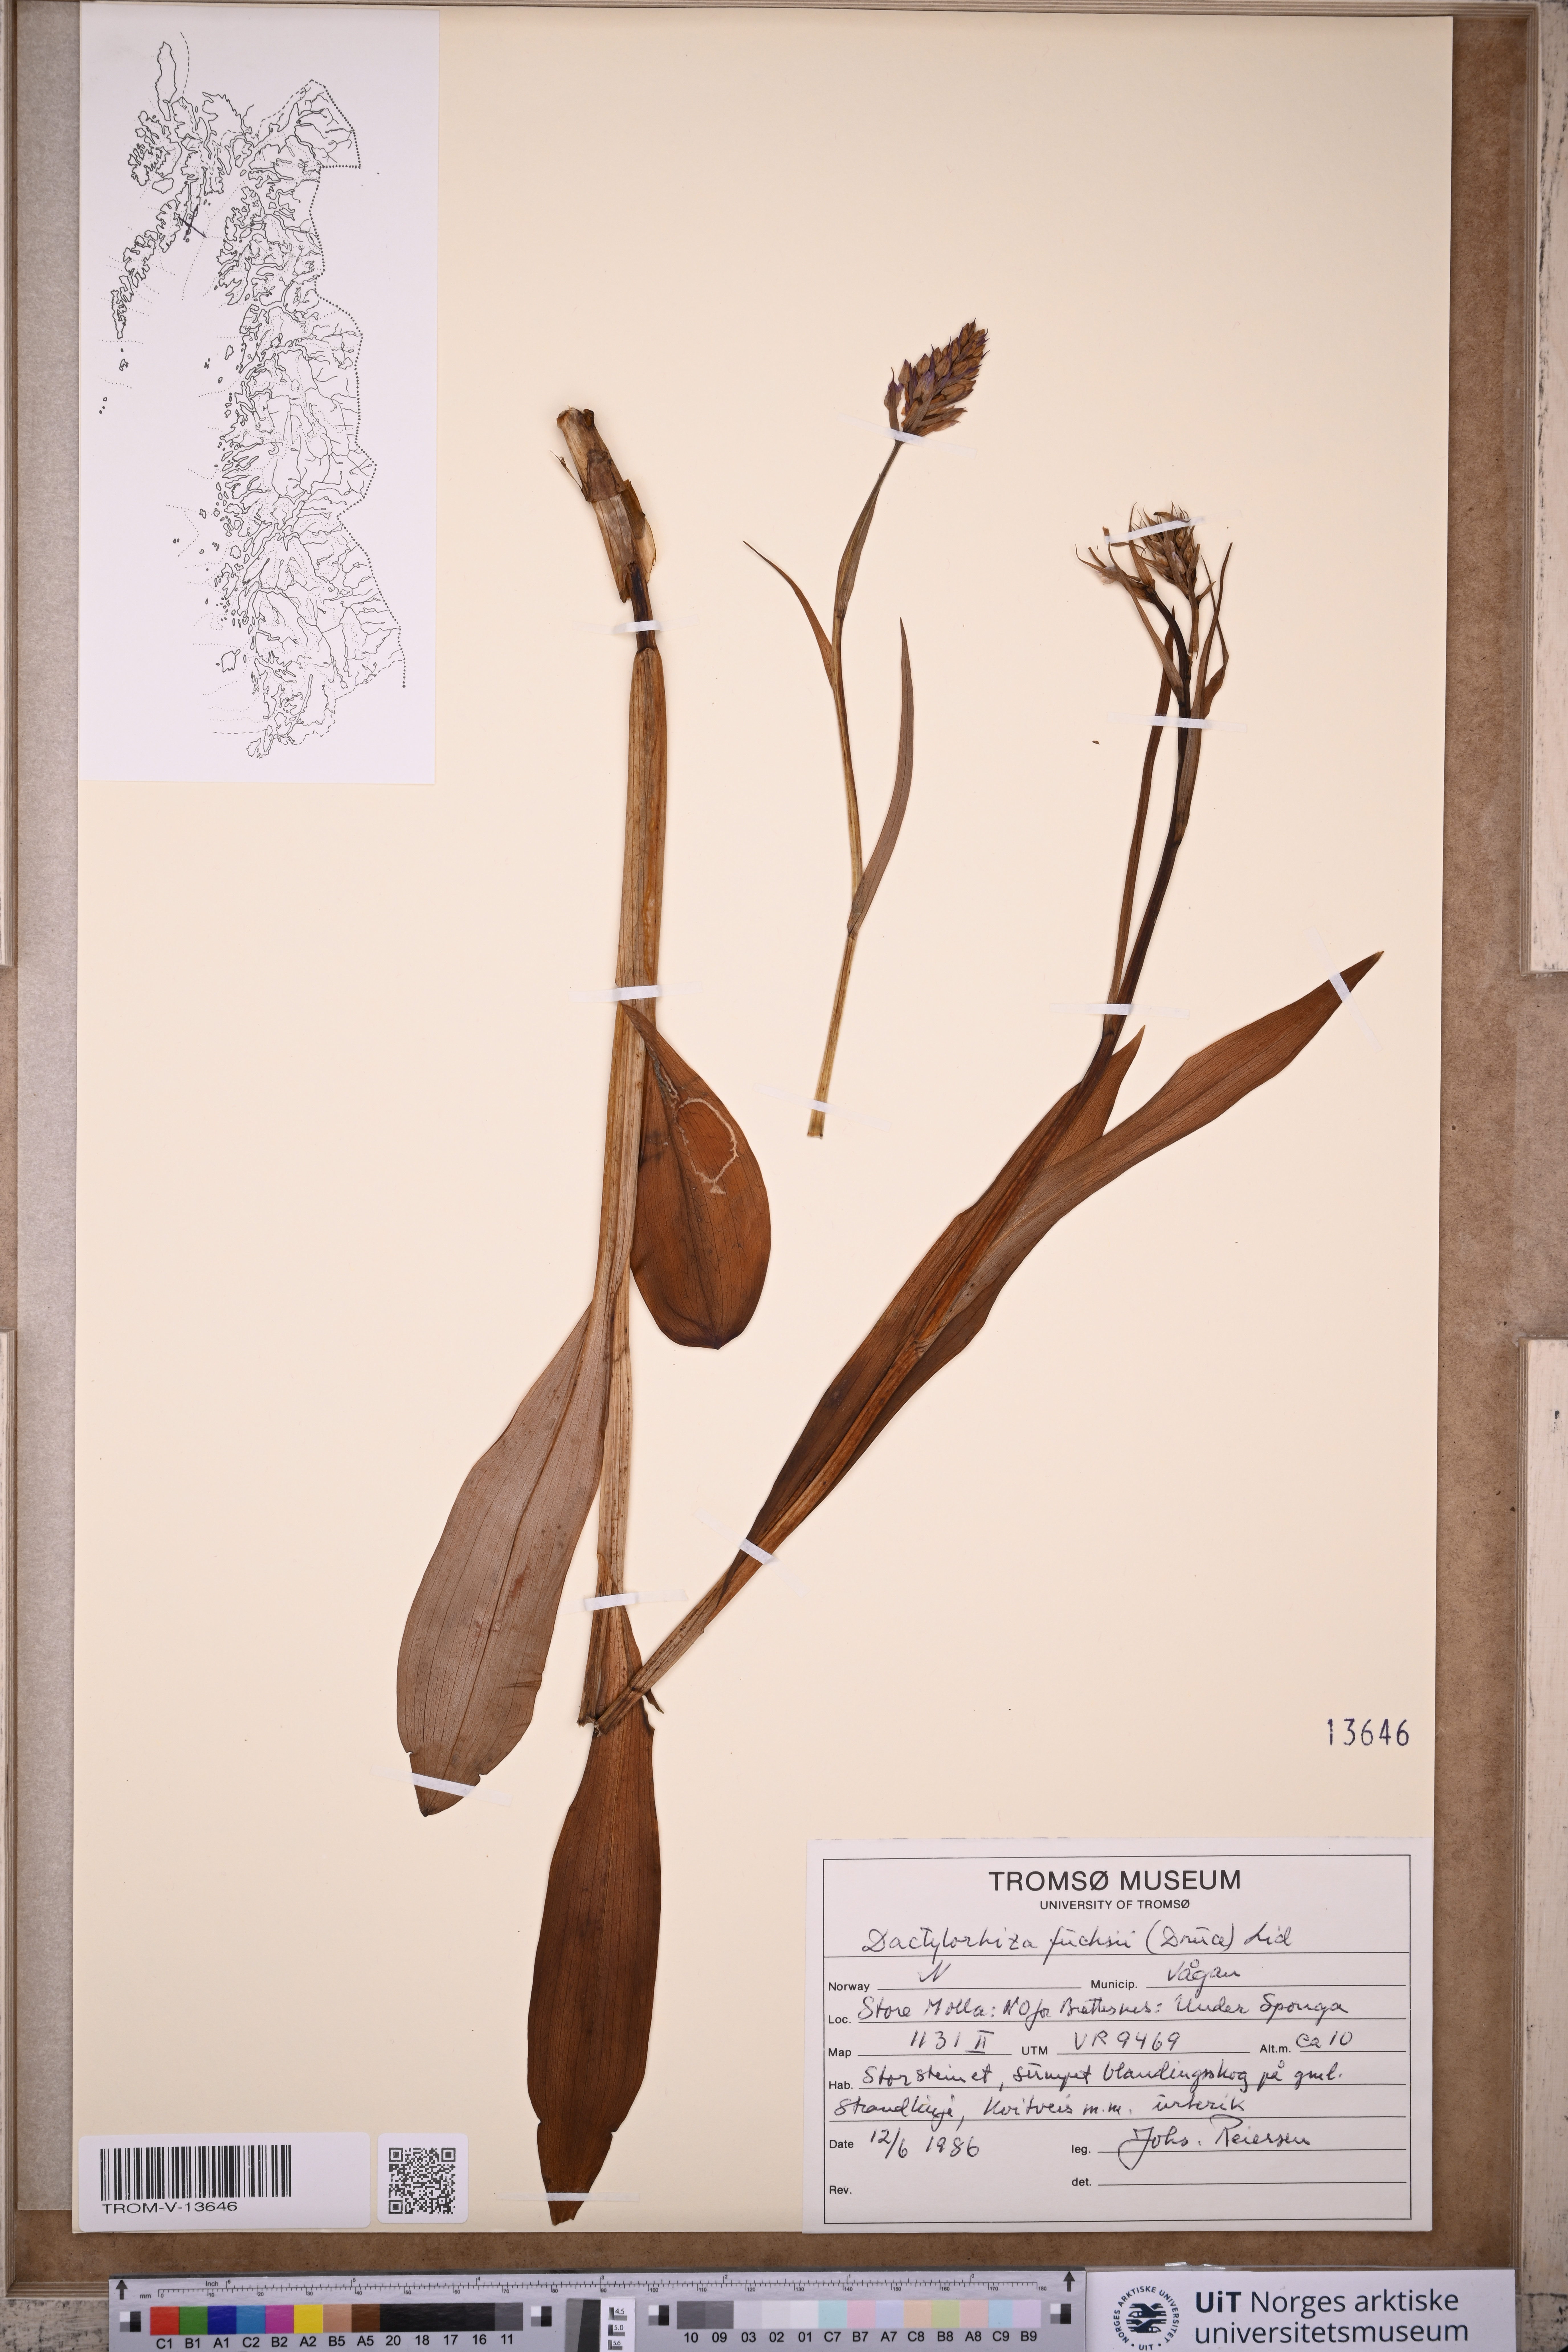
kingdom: Plantae
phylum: Tracheophyta
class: Liliopsida
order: Asparagales
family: Orchidaceae
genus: Dactylorhiza
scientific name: Dactylorhiza maculata
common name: Heath spotted-orchid
